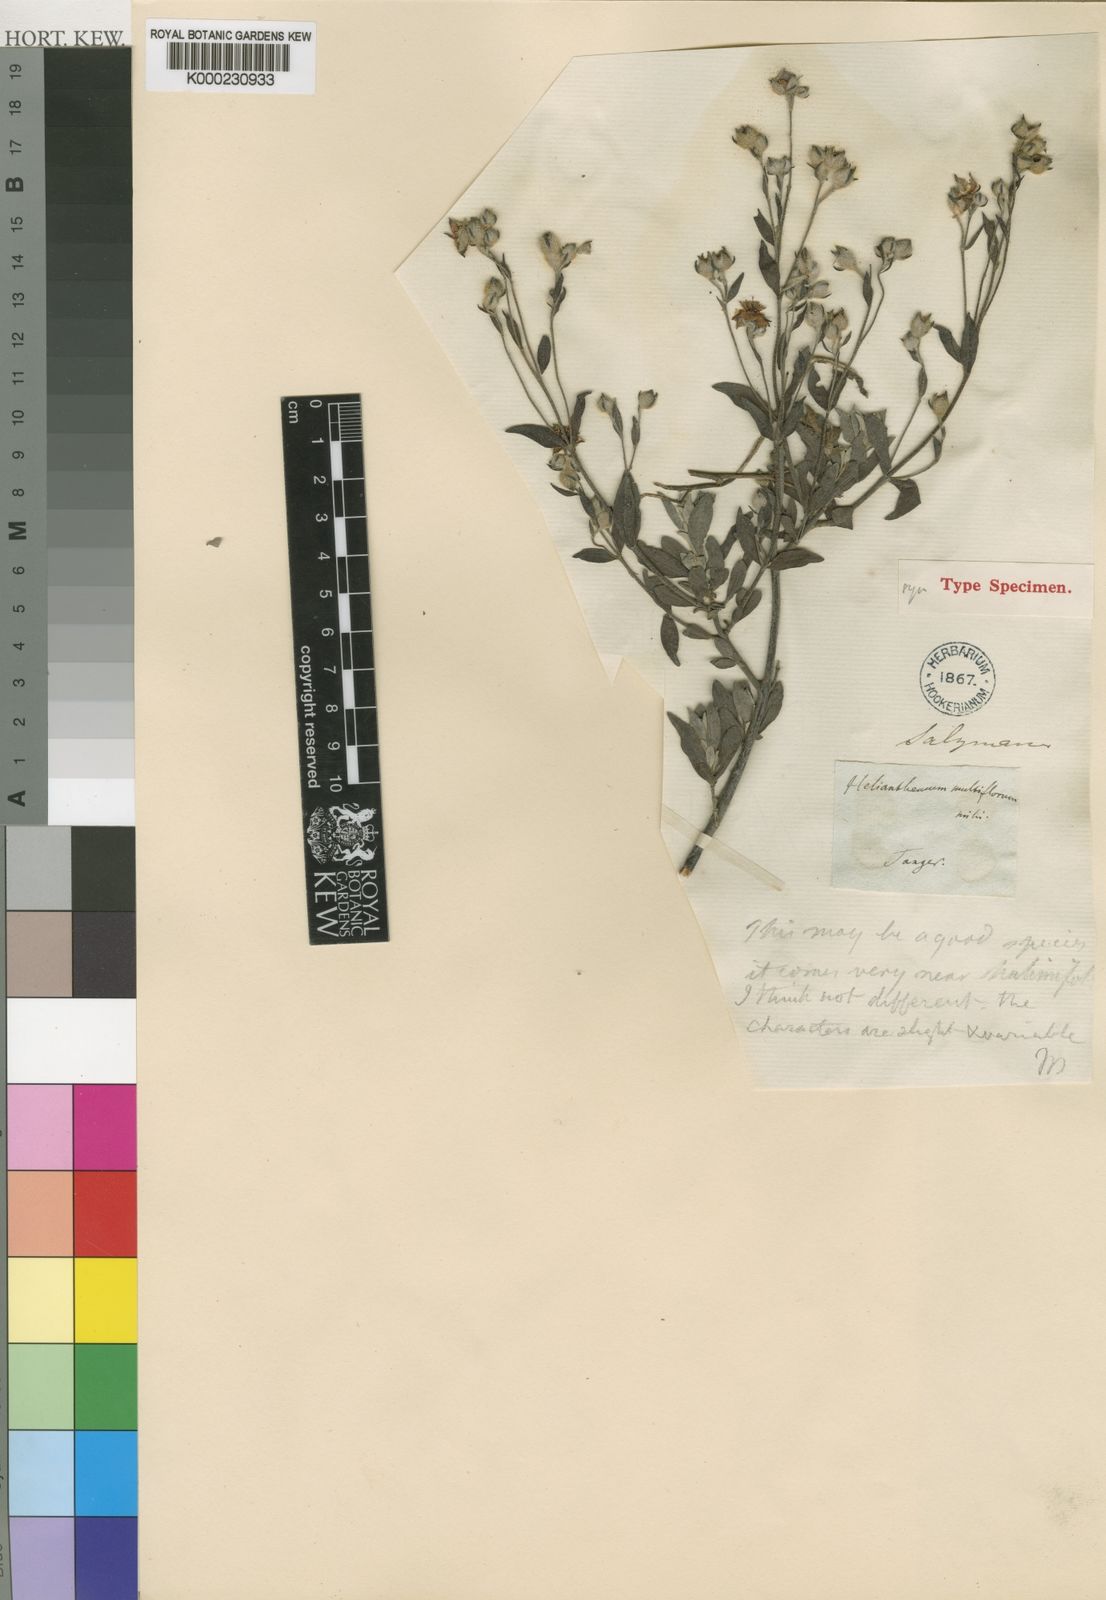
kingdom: Plantae
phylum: Tracheophyta
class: Magnoliopsida
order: Malvales
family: Cistaceae
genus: Halimium
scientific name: Halimium halimifolium
